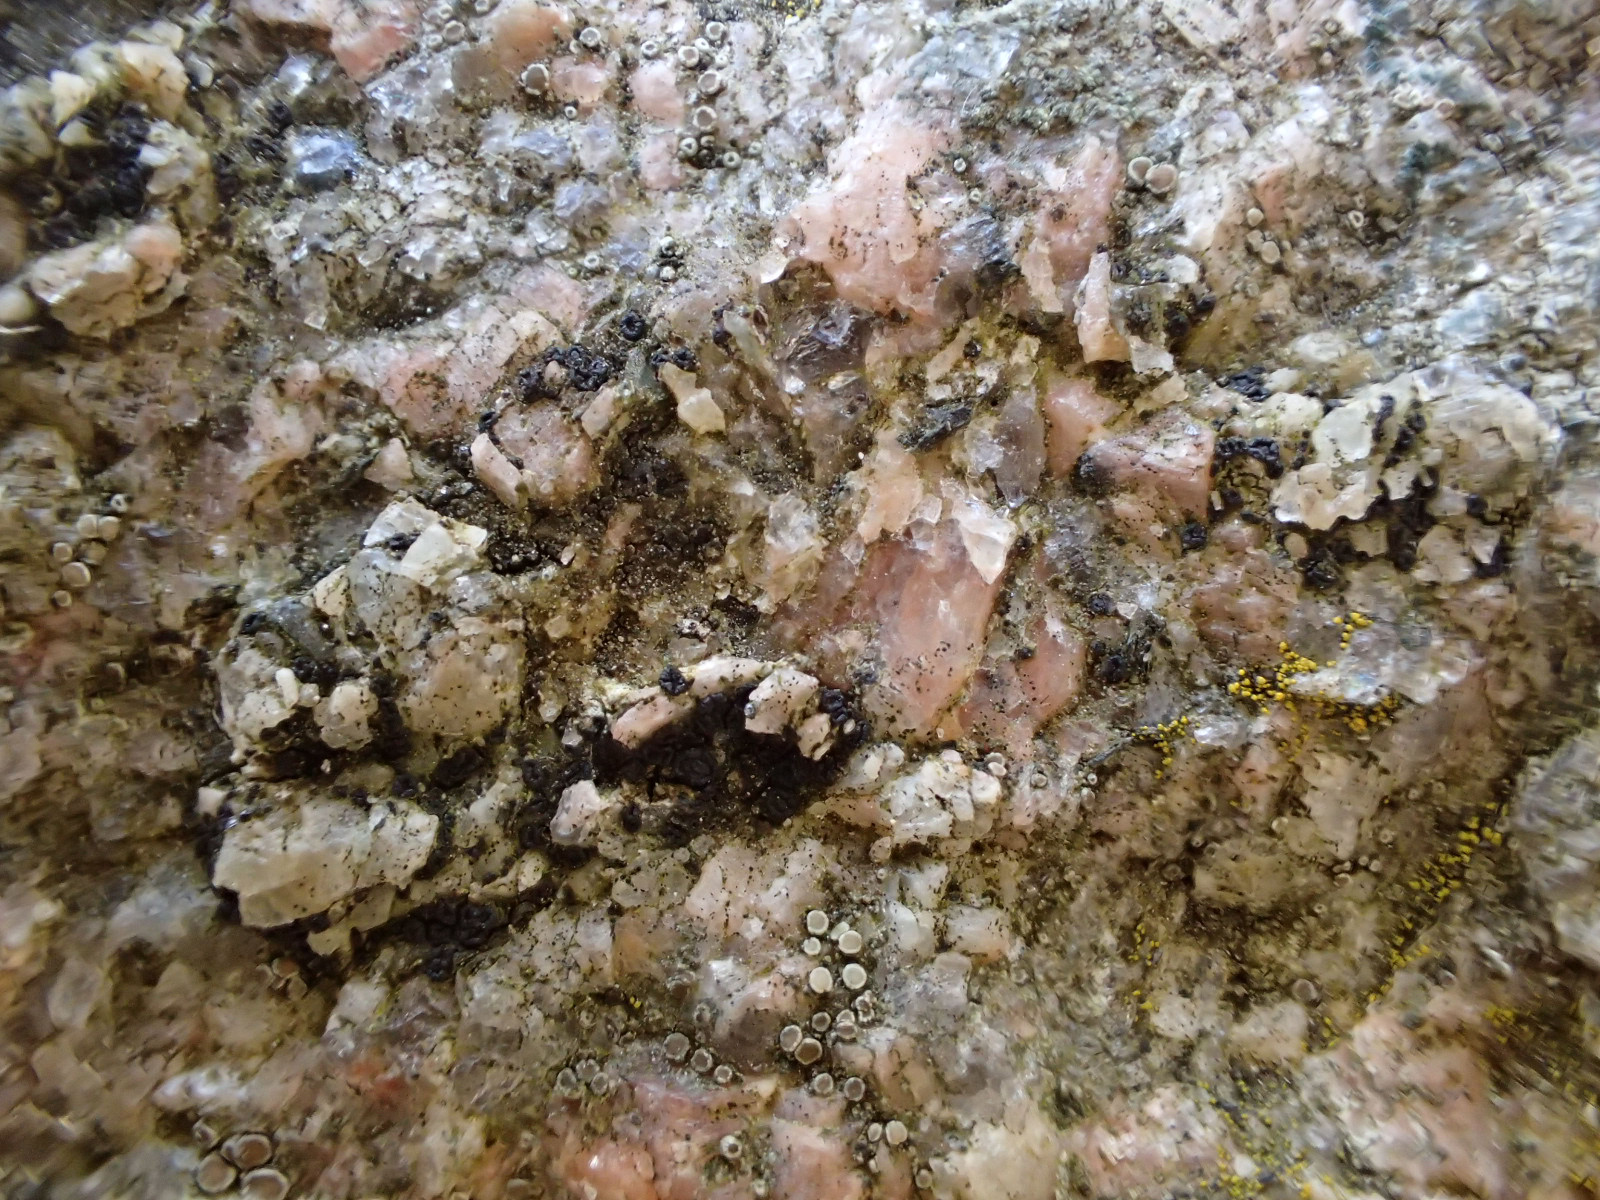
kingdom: Fungi
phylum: Ascomycota
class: Lecanoromycetes
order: Acarosporales
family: Acarosporaceae
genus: Acarospora
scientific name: Acarospora privigna
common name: sort foldekantlav
